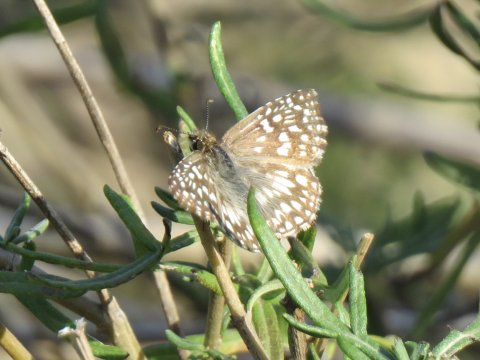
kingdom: Animalia
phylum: Arthropoda
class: Insecta
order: Lepidoptera
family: Hesperiidae
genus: Pyrgus
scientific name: Pyrgus oileus
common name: Tropical Checkered-Skipper
